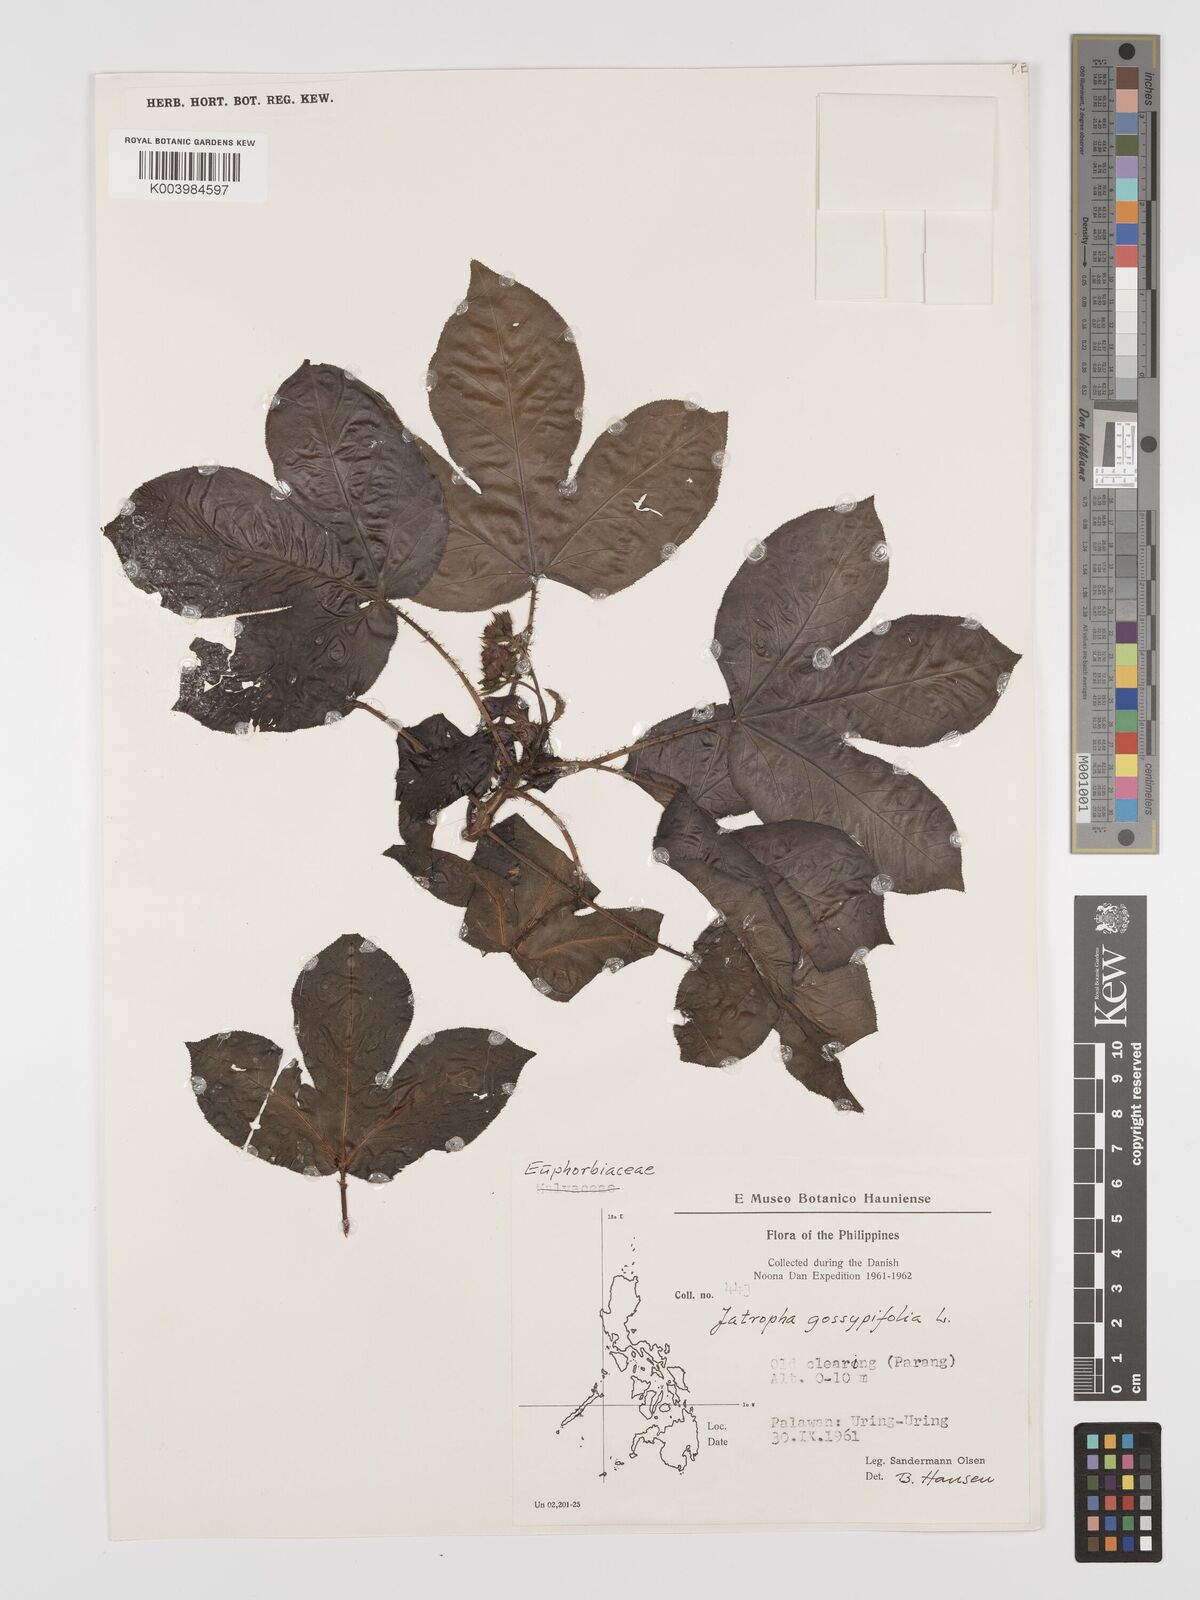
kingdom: Plantae
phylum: Tracheophyta
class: Magnoliopsida
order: Malpighiales
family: Euphorbiaceae
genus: Jatropha
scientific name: Jatropha gossypiifolia
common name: Bellyache bush
